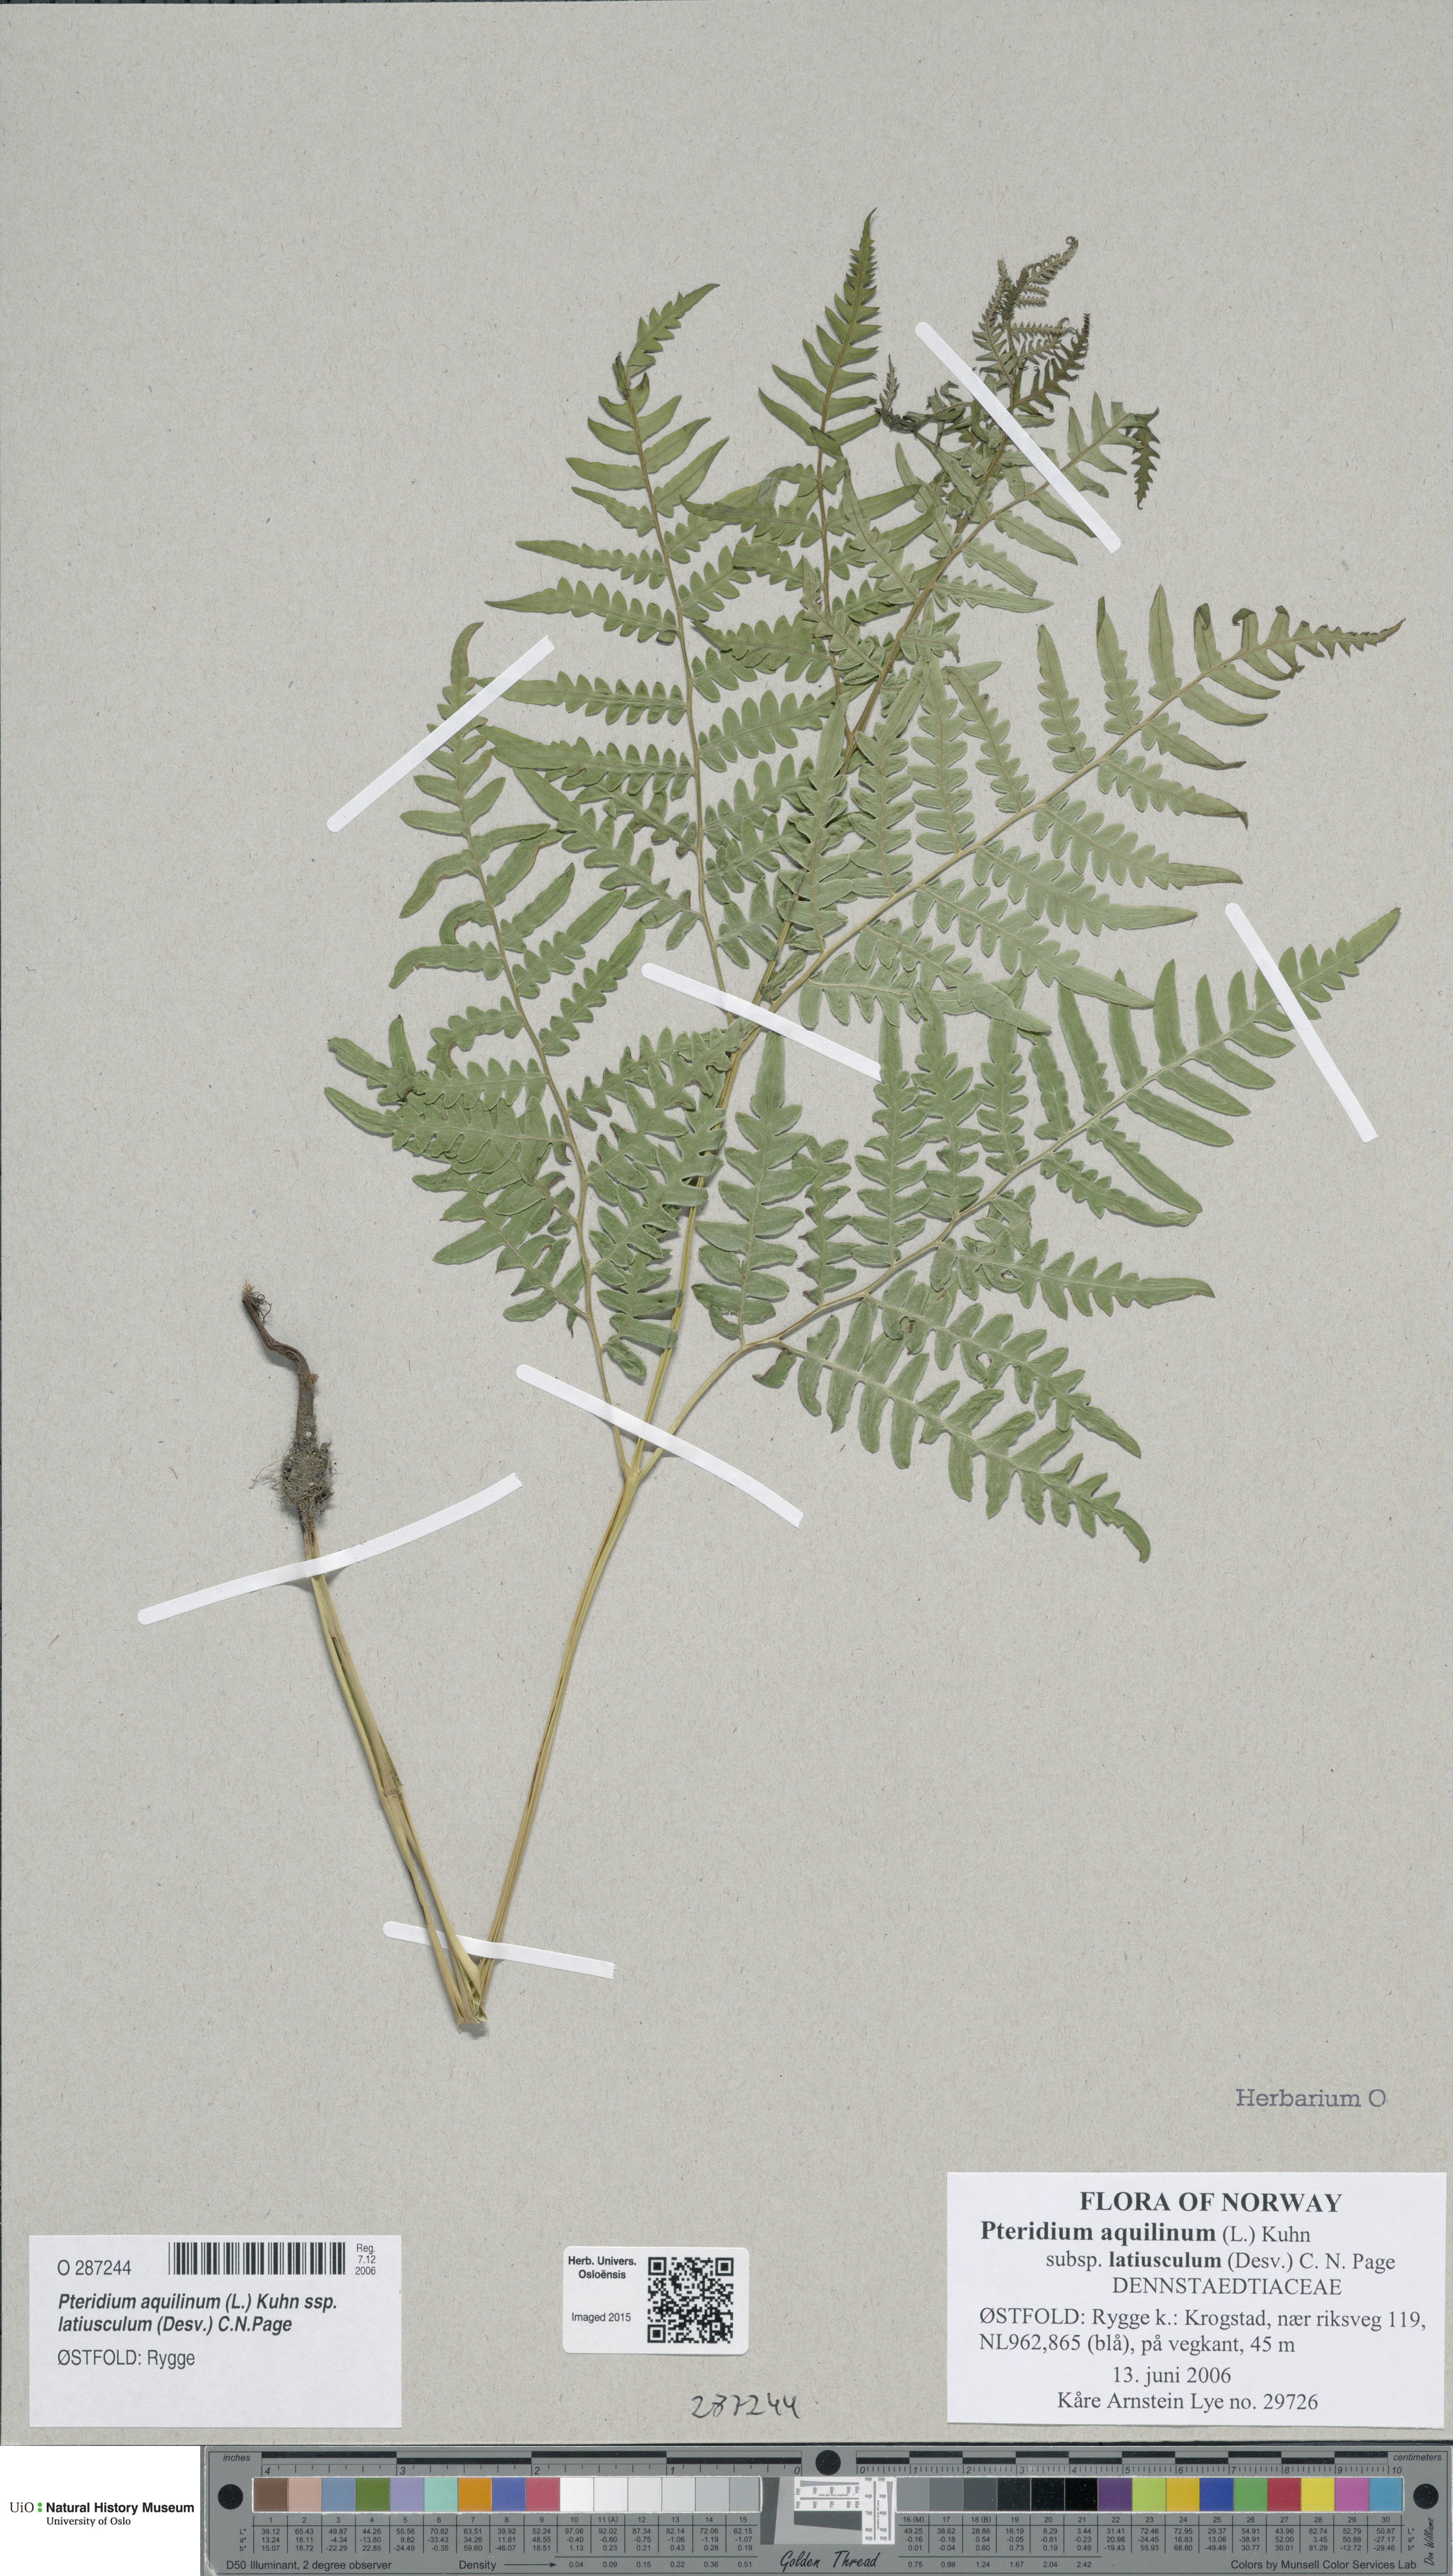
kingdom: Plantae
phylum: Tracheophyta
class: Polypodiopsida
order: Polypodiales
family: Dennstaedtiaceae
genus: Pteridium
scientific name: Pteridium aquilinum
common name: Bracken
